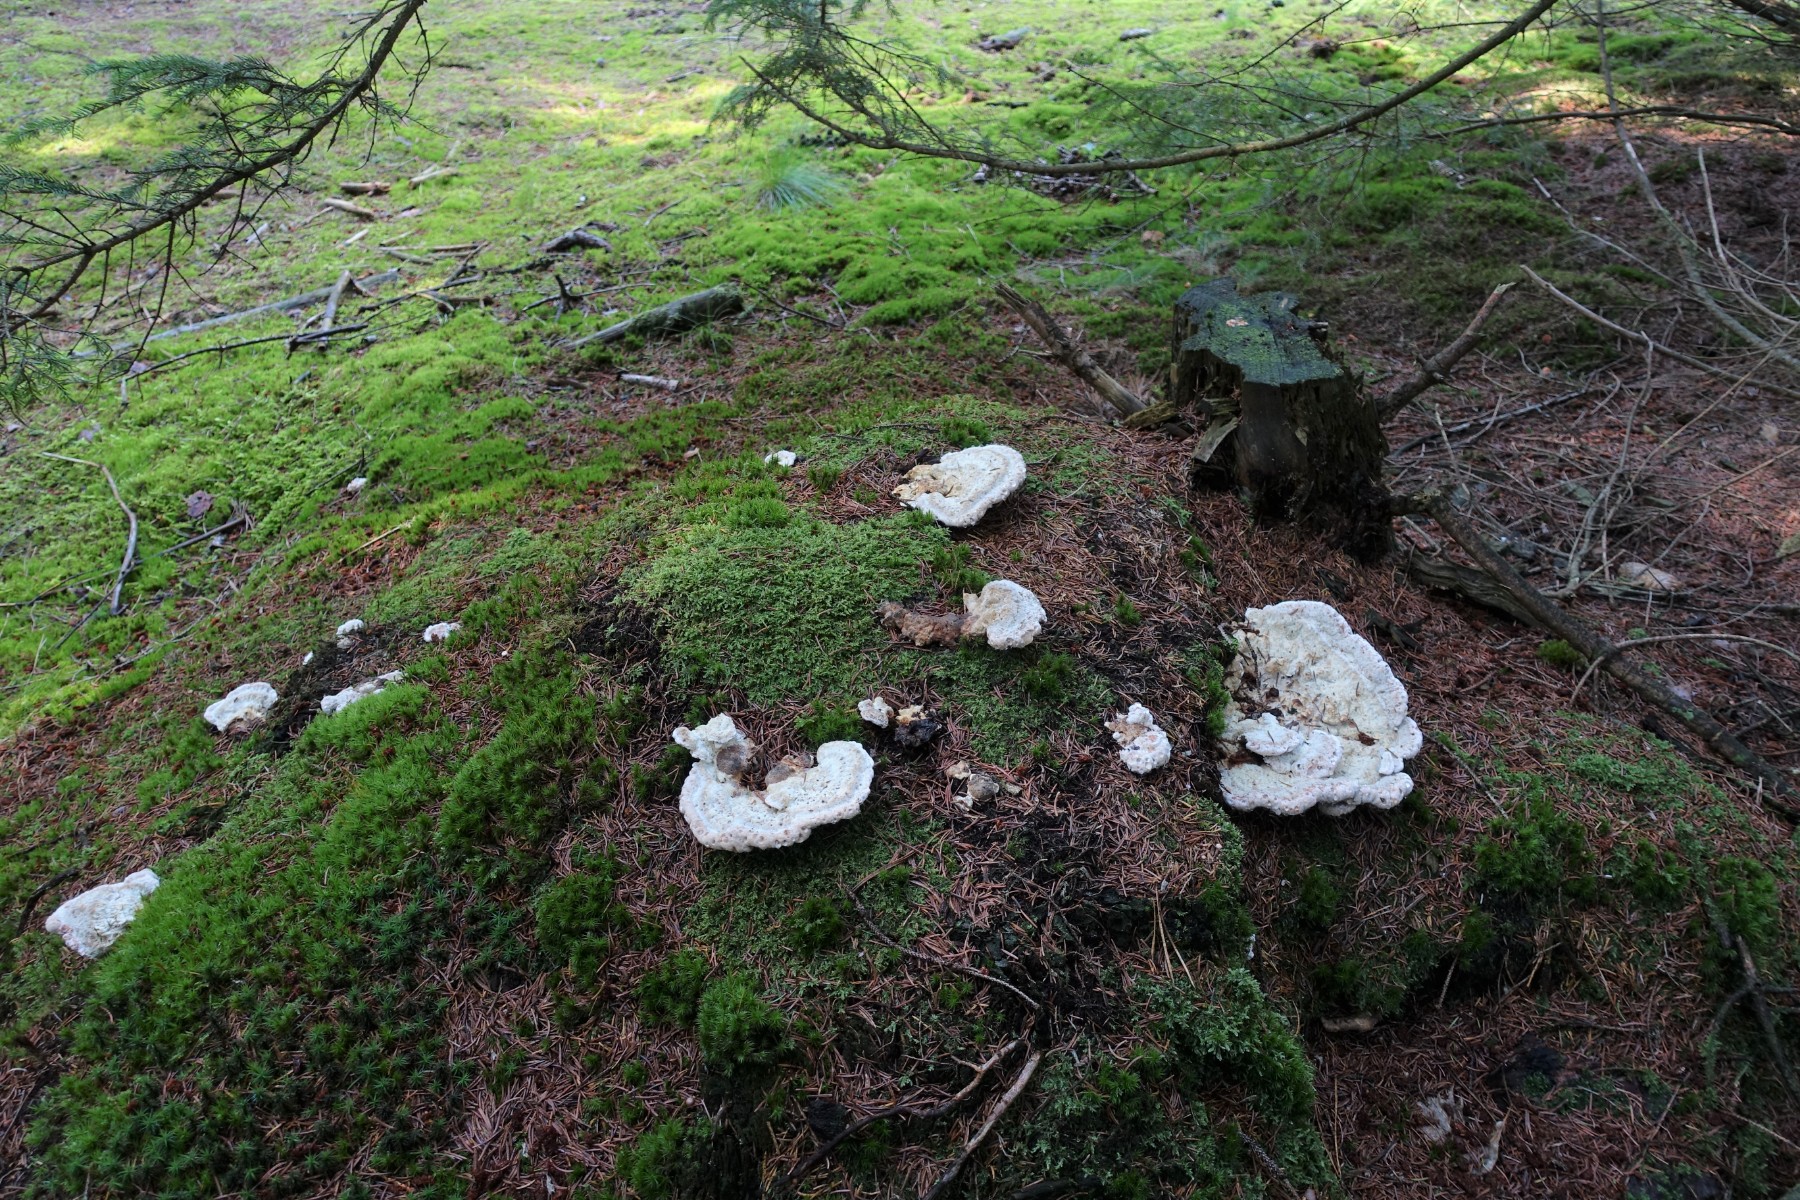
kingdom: Fungi
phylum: Basidiomycota
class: Agaricomycetes
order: Polyporales
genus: Calcipostia
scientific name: Calcipostia guttulata
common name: dråbe-kødporesvamp
